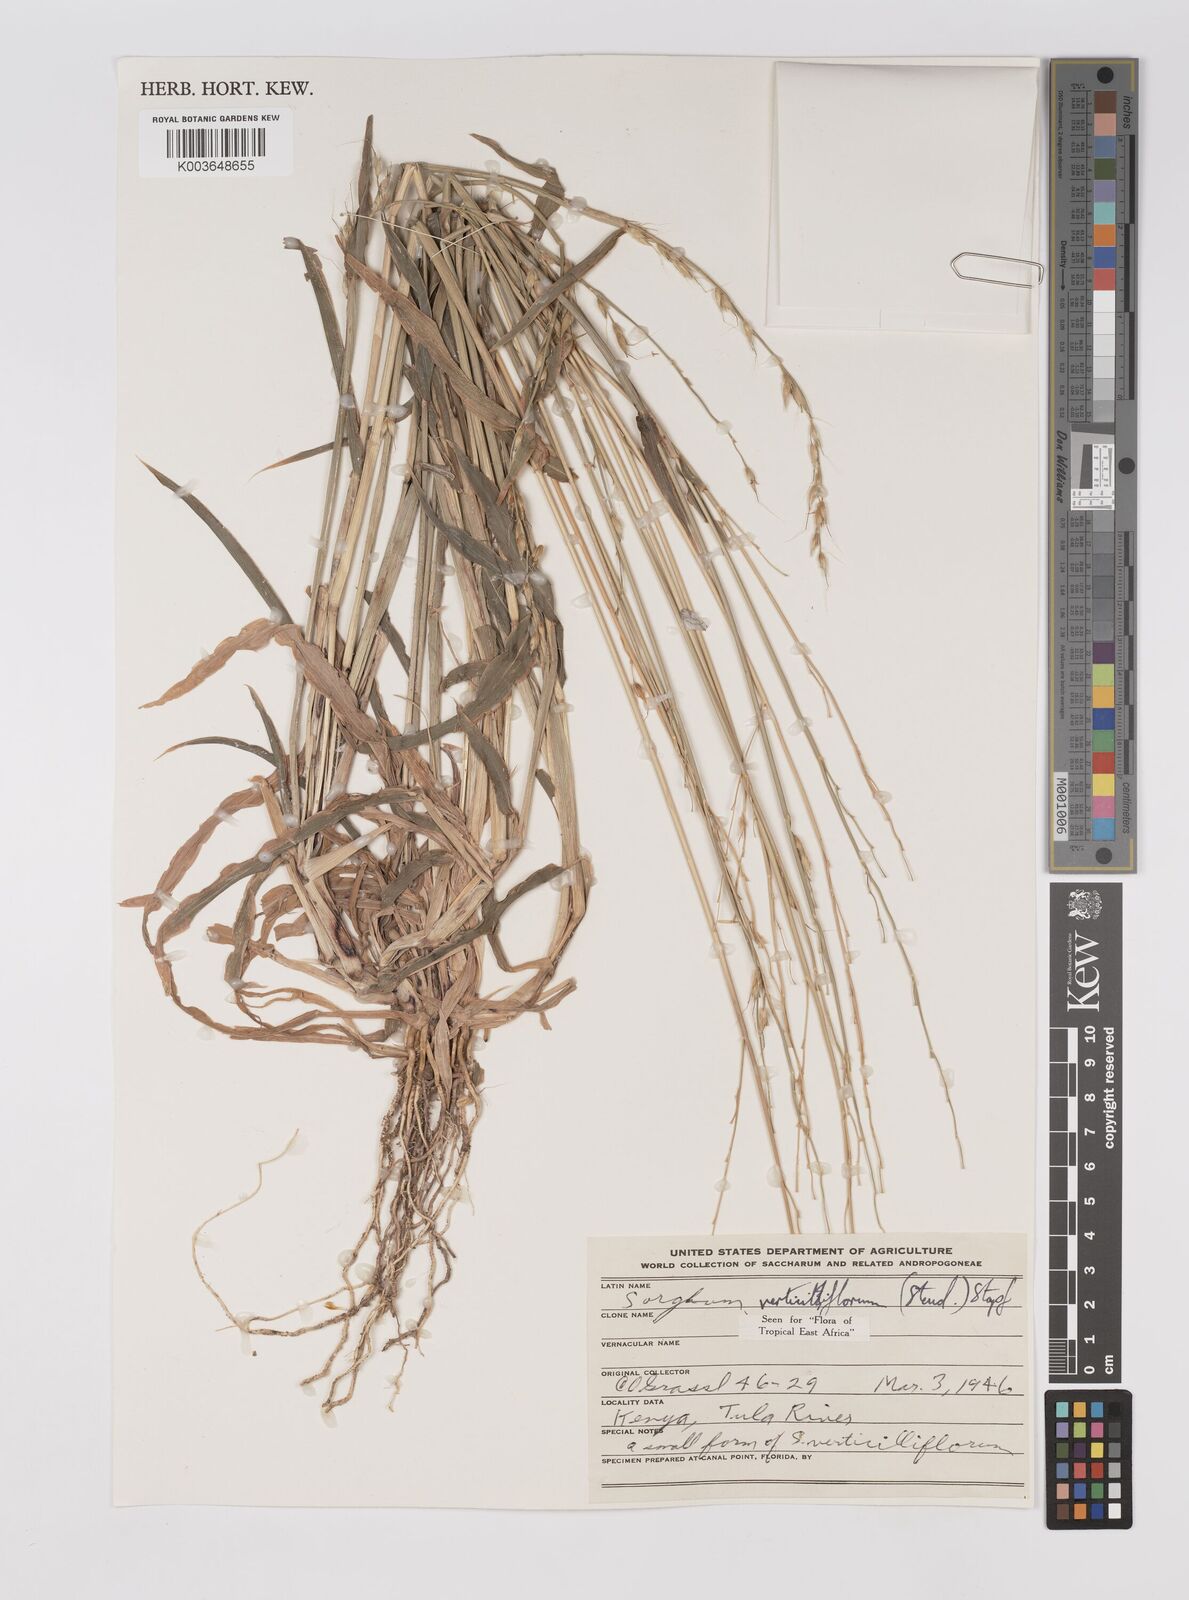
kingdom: Plantae
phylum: Tracheophyta
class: Liliopsida
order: Poales
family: Poaceae
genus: Sorghum
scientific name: Sorghum arundinaceum
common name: Sorghum
